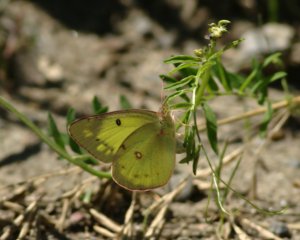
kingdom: Animalia
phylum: Arthropoda
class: Insecta
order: Lepidoptera
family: Pieridae
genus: Colias
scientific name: Colias philodice
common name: Clouded Sulphur
